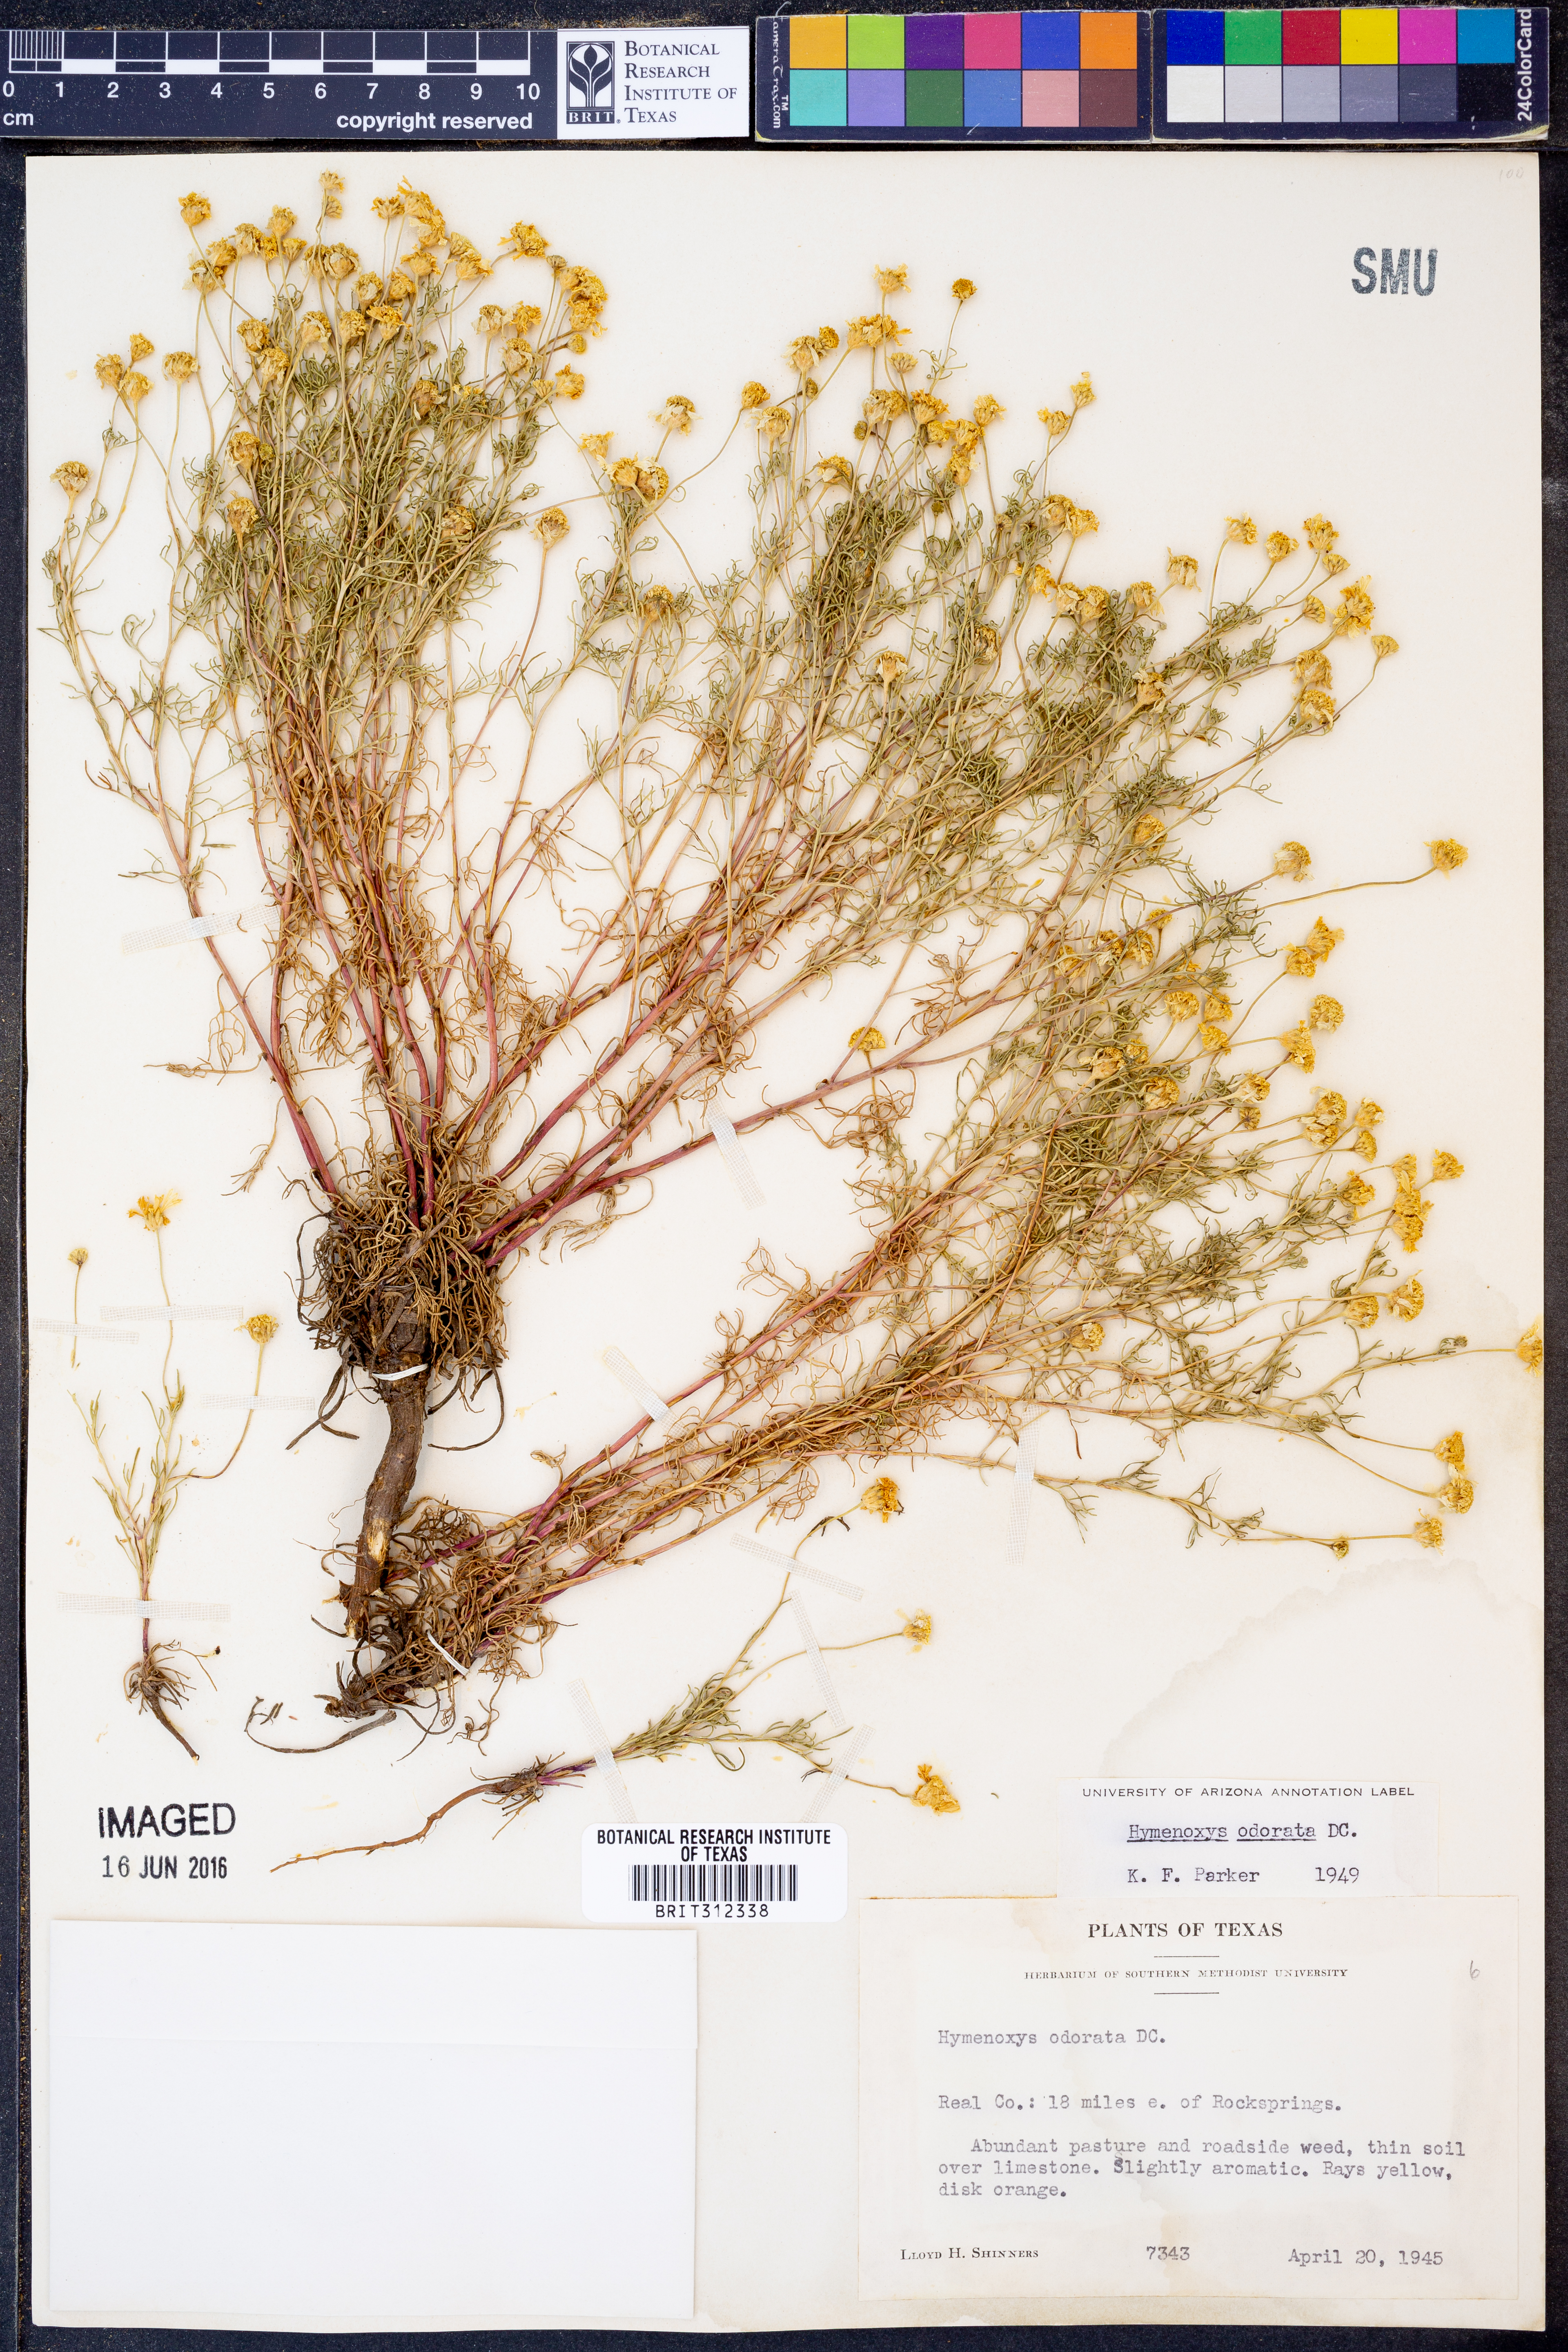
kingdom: Plantae
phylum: Tracheophyta
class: Magnoliopsida
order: Asterales
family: Asteraceae
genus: Hymenoxys
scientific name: Hymenoxys odorata
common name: Bitter rubberweed
